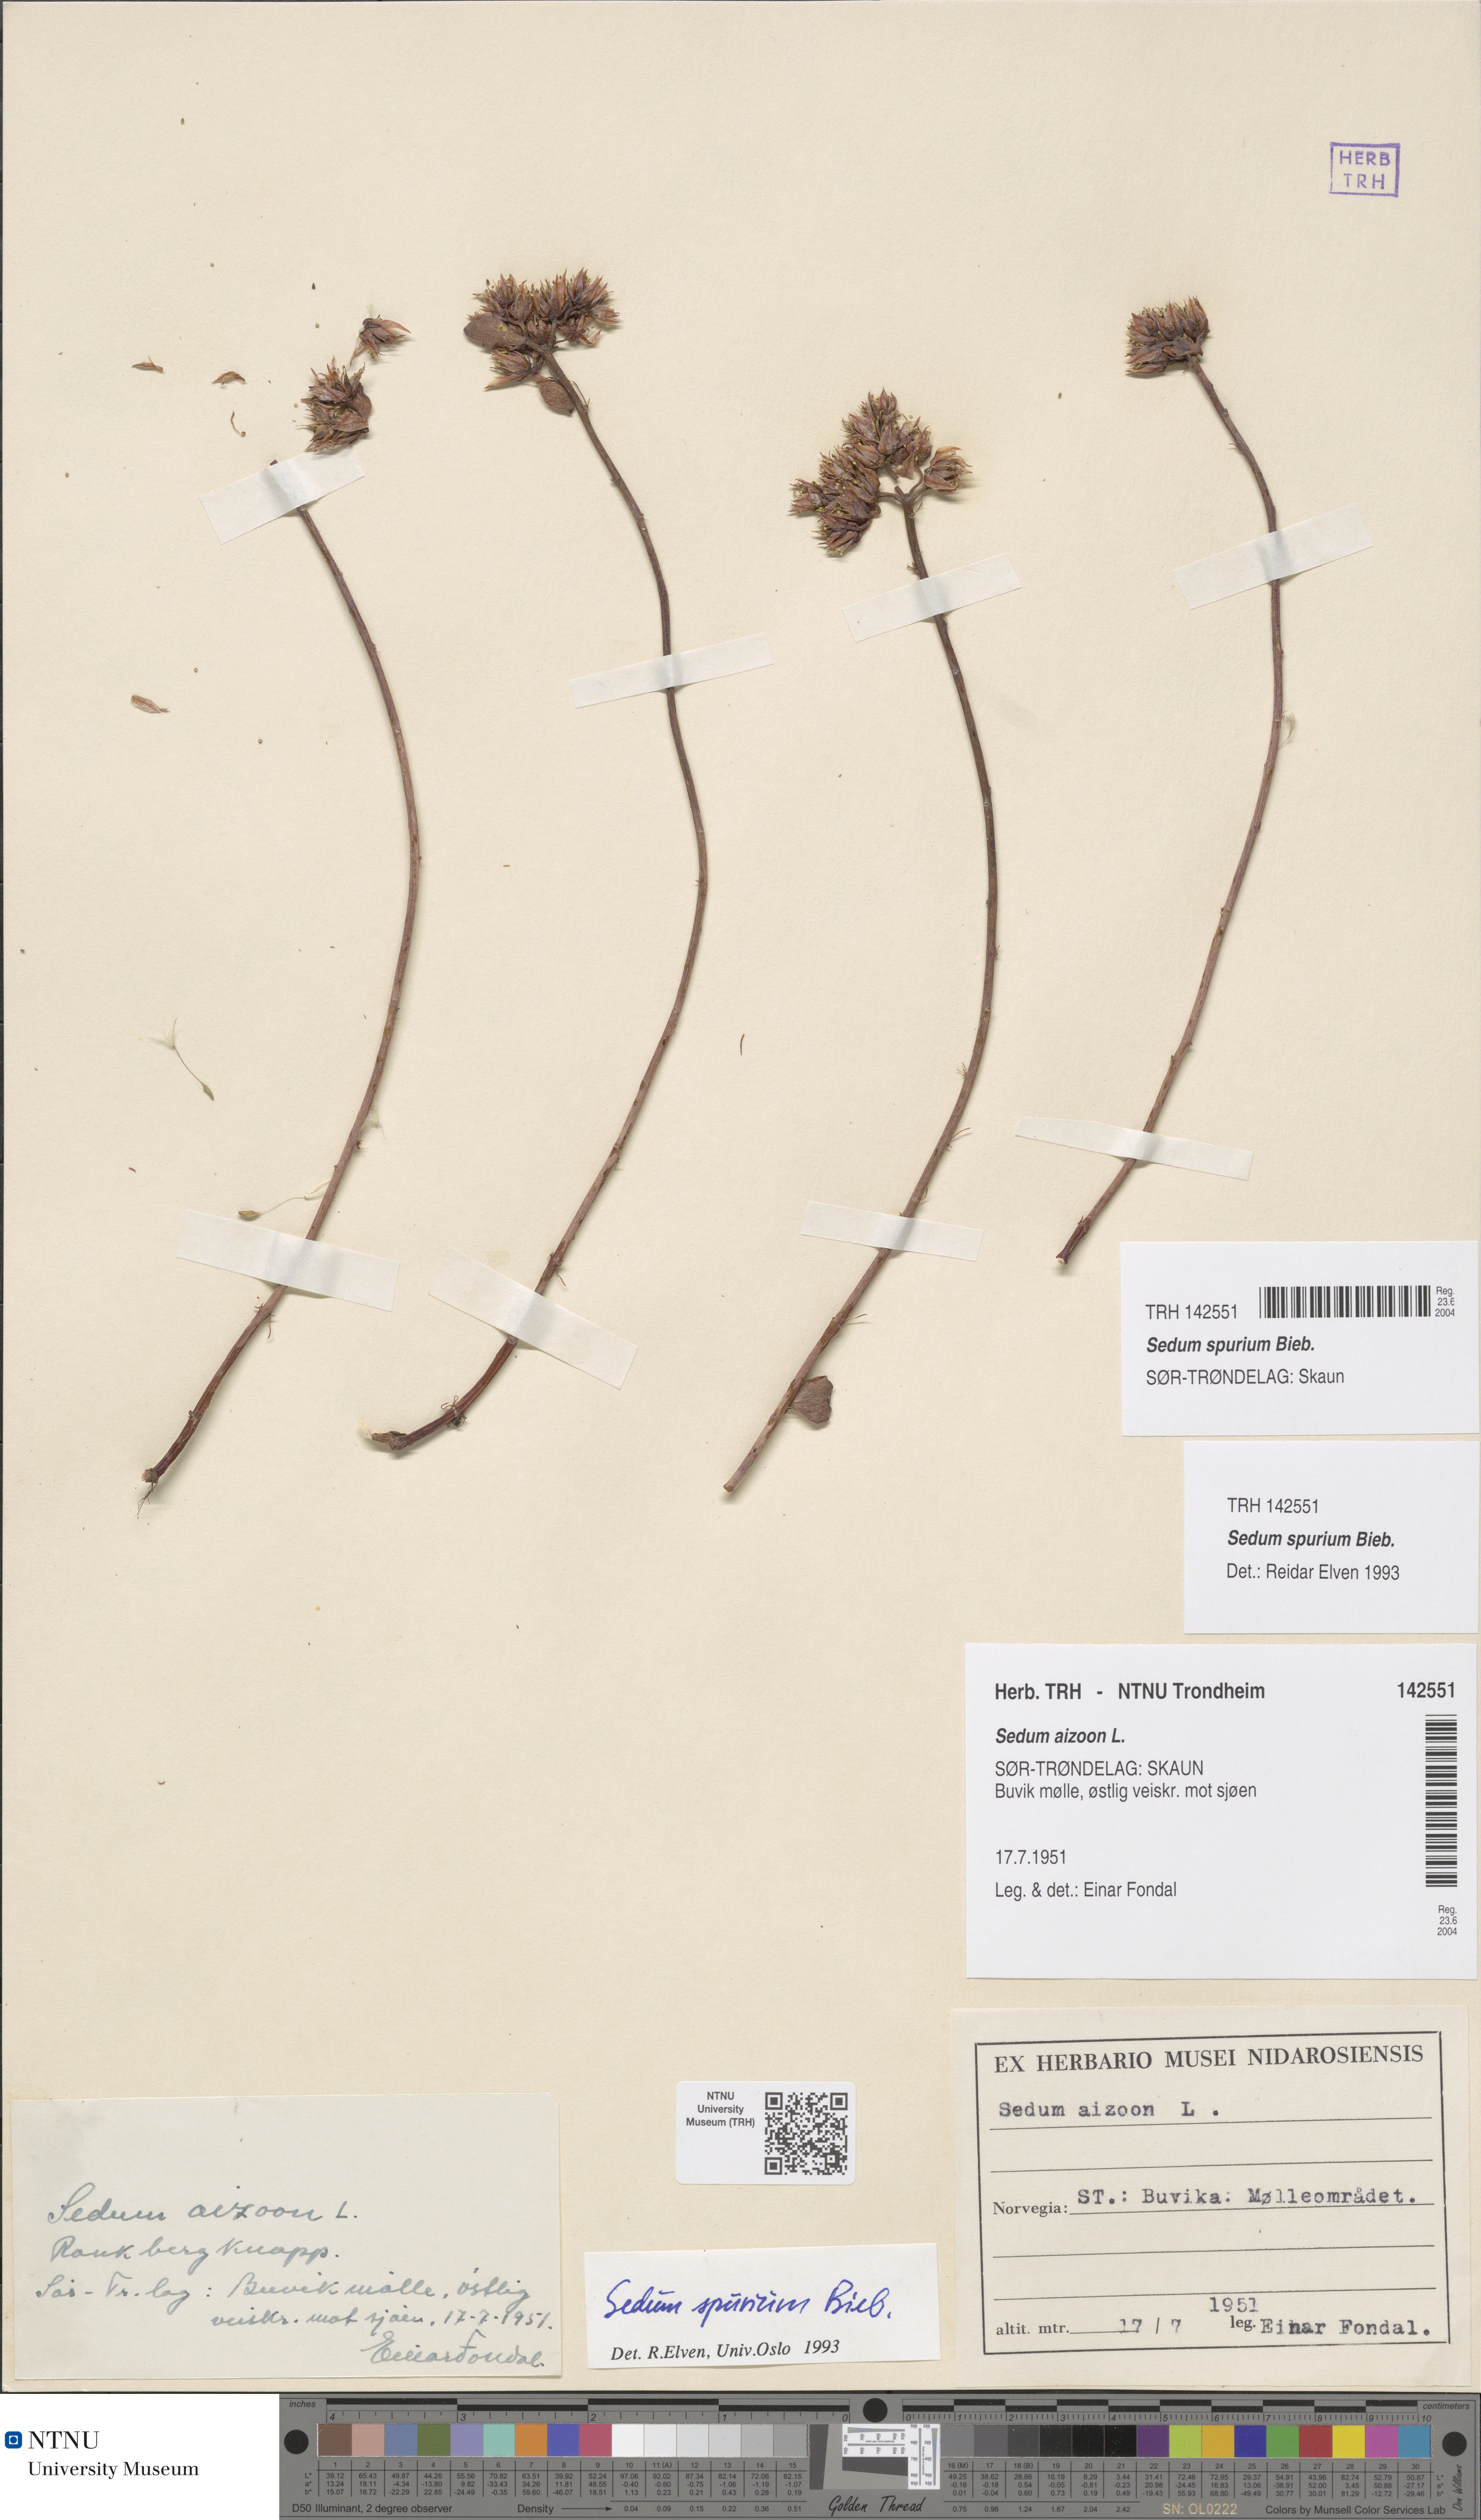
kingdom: Plantae
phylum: Tracheophyta
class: Magnoliopsida
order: Saxifragales
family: Crassulaceae
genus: Phedimus
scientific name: Phedimus spurius
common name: Caucasian stonecrop
